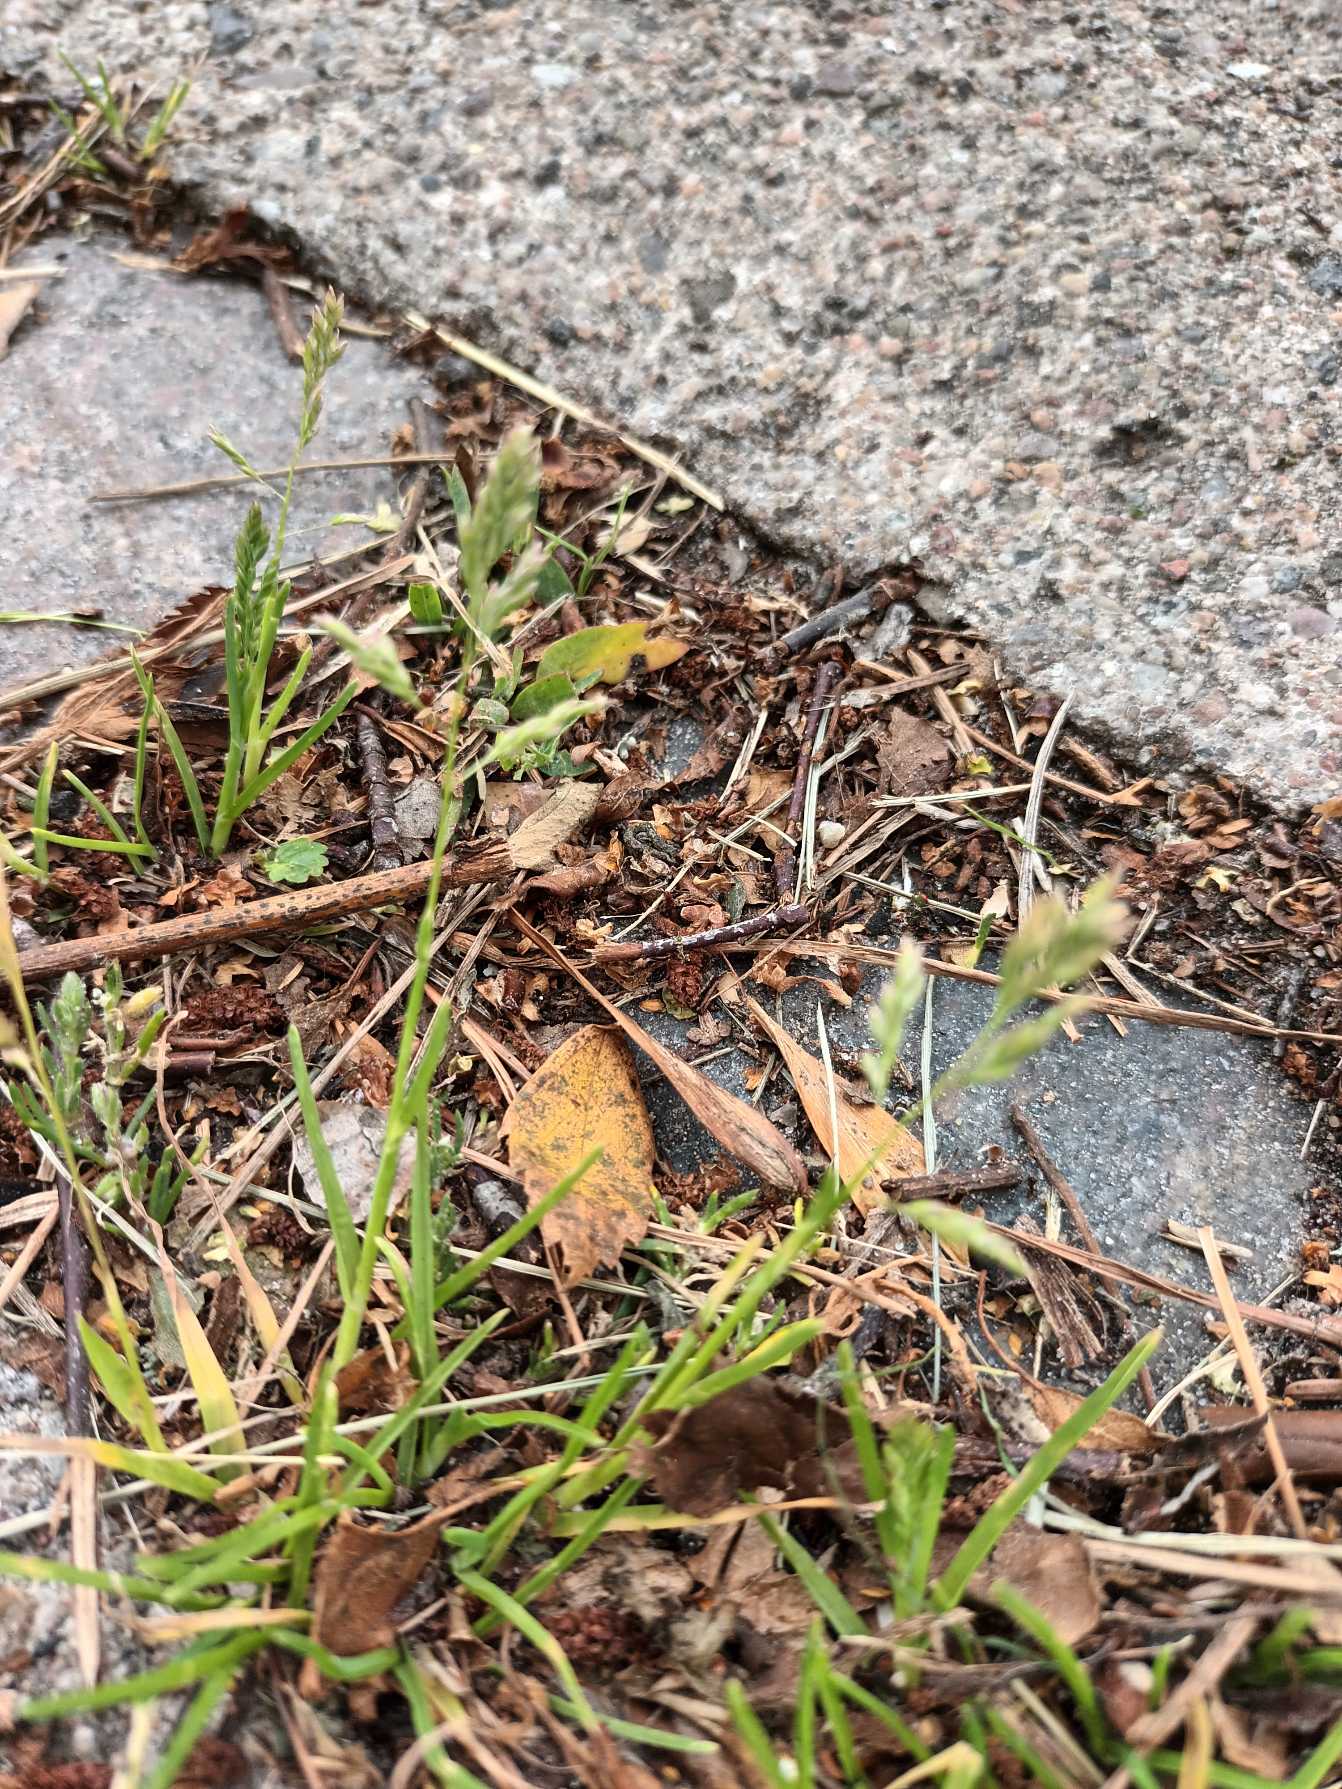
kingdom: Plantae
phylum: Tracheophyta
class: Liliopsida
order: Poales
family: Poaceae
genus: Poa
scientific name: Poa annua
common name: Enårig rapgræs
